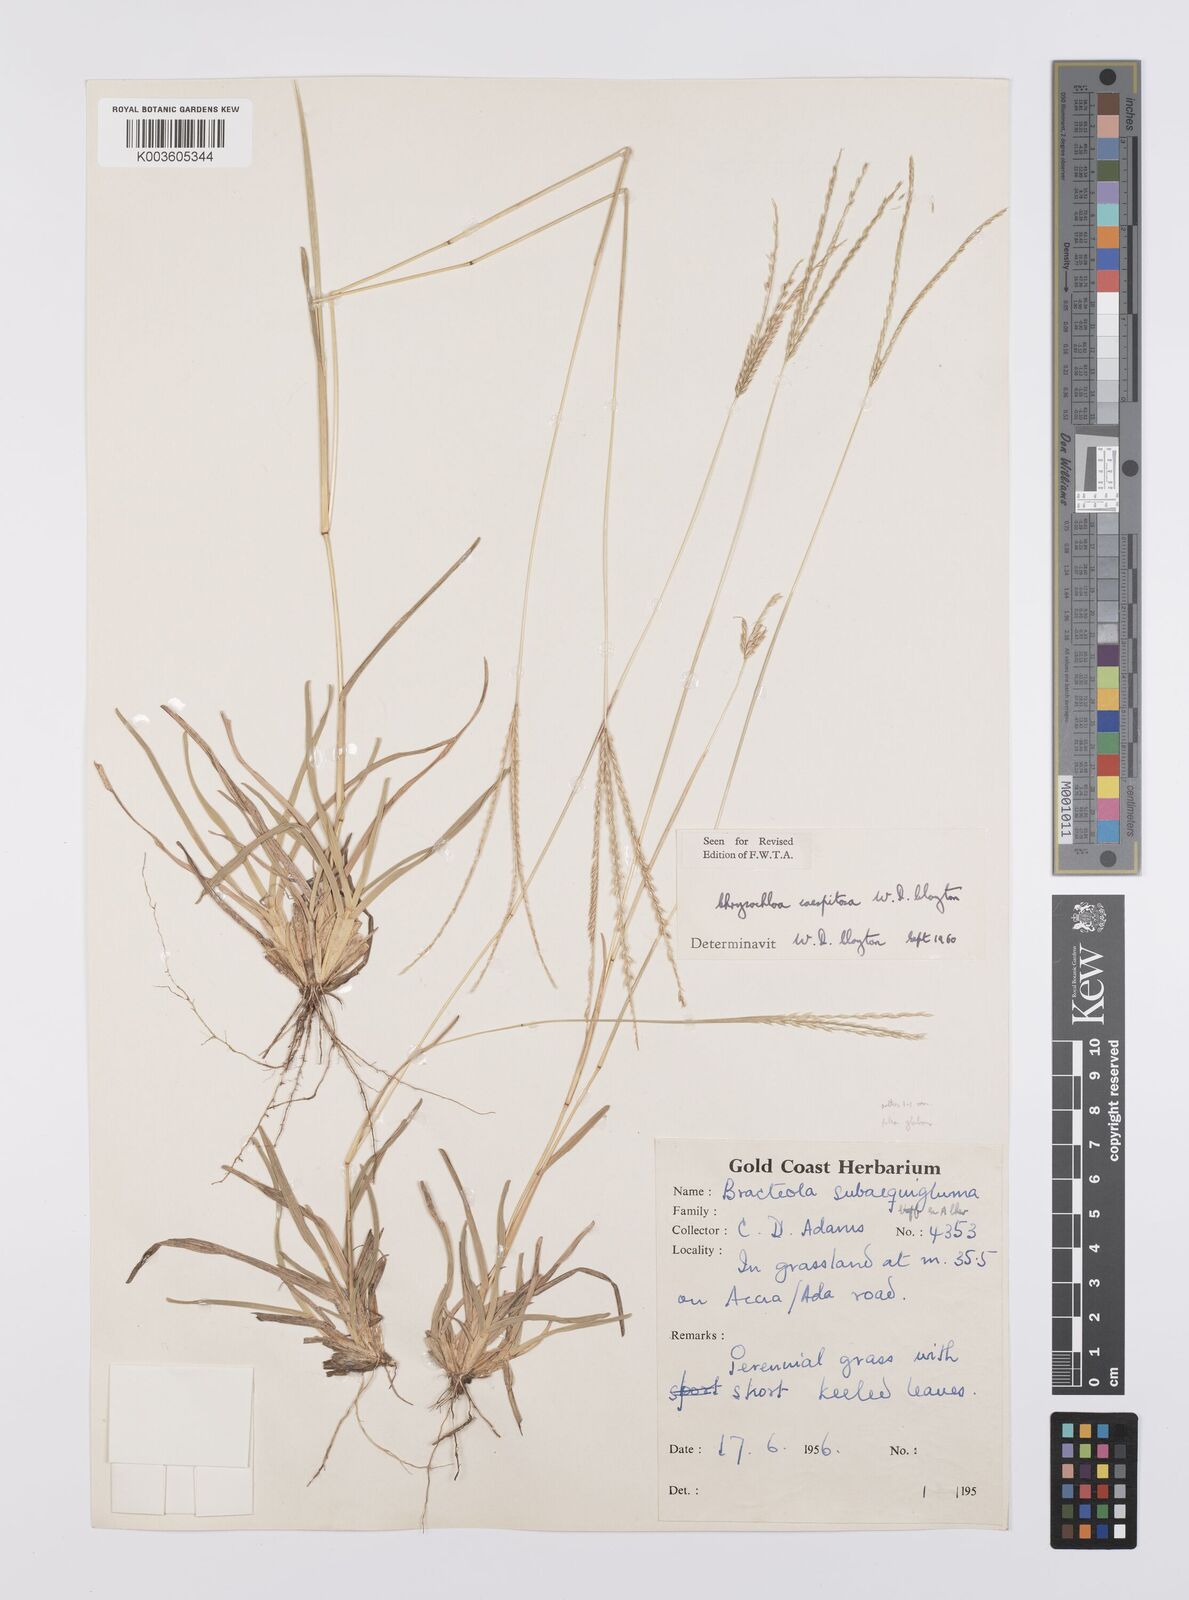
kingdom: Plantae
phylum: Tracheophyta
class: Liliopsida
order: Poales
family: Poaceae
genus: Chrysochloa
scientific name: Chrysochloa hindsii
